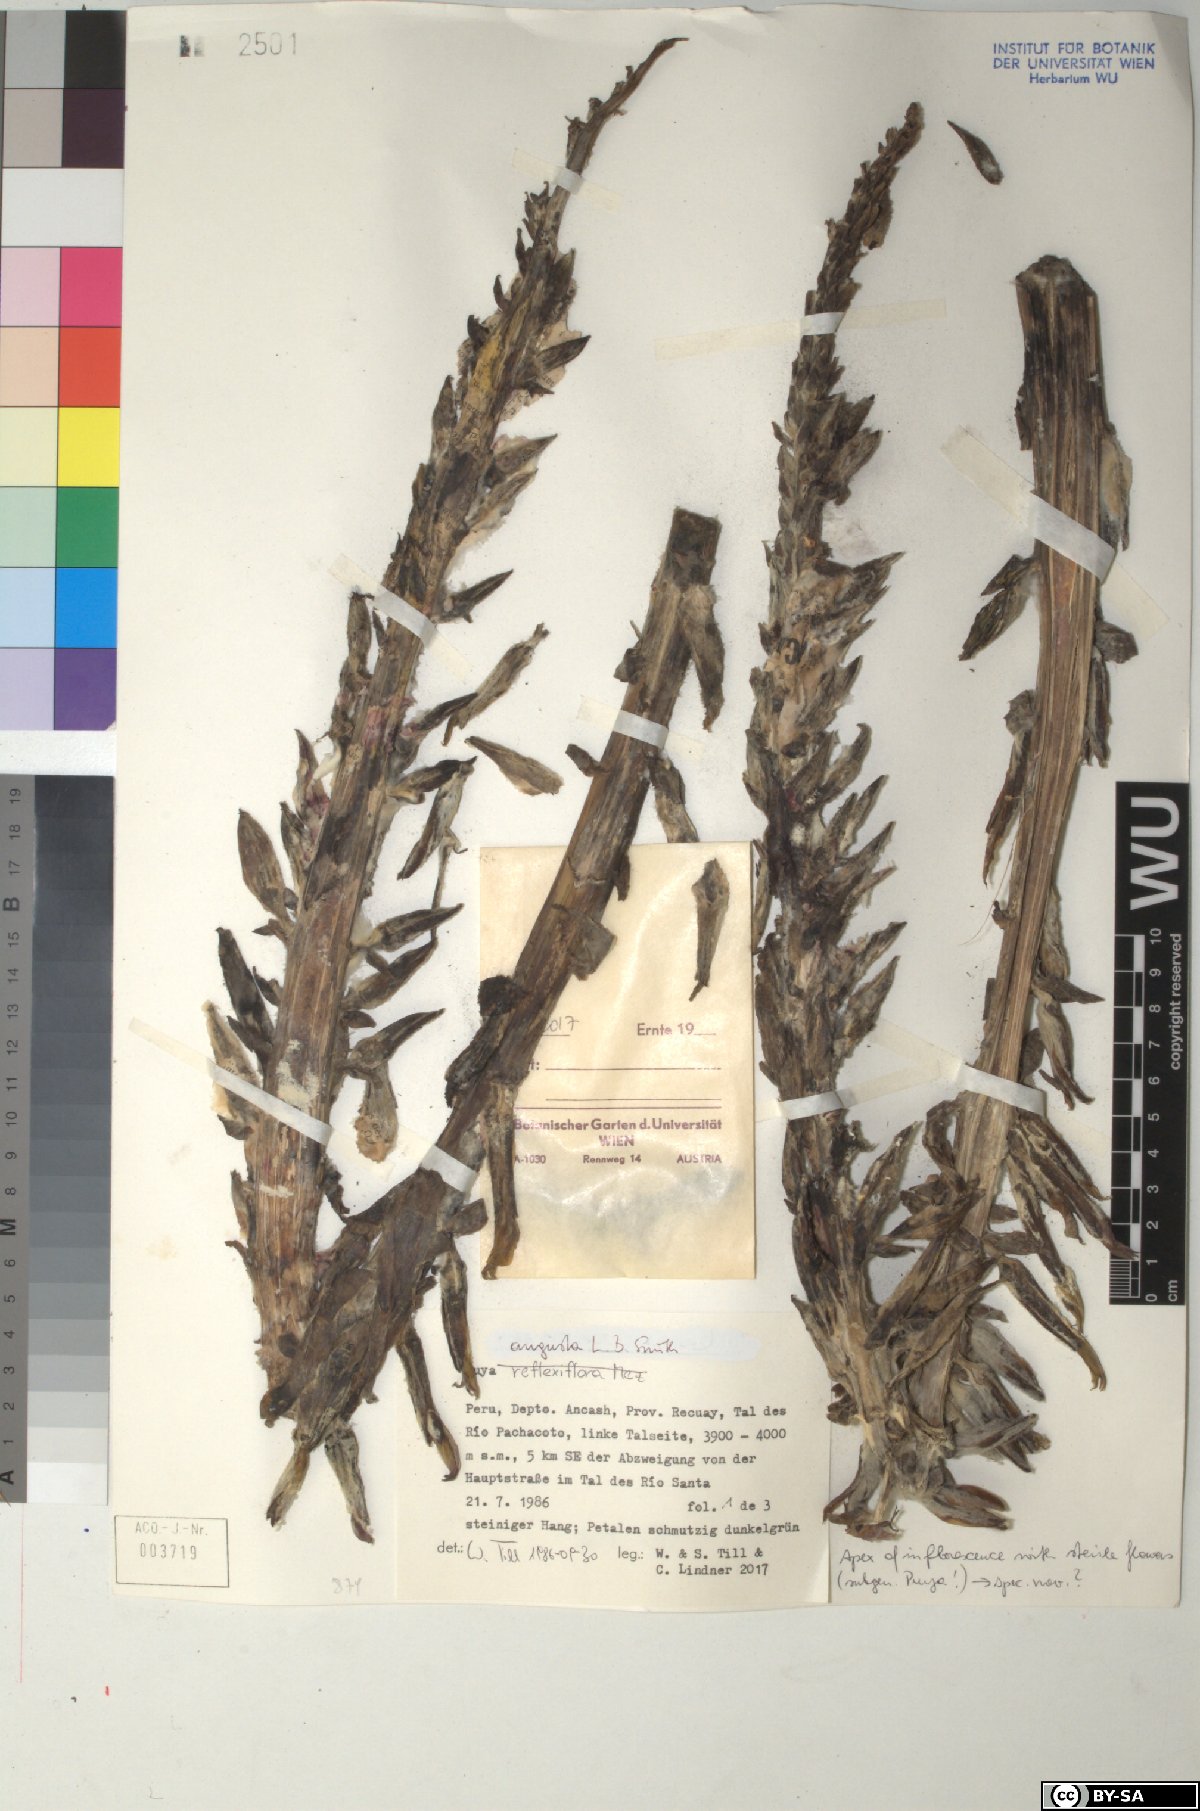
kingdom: Plantae
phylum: Tracheophyta
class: Liliopsida
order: Poales
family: Bromeliaceae
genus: Puya
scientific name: Puya angusta
